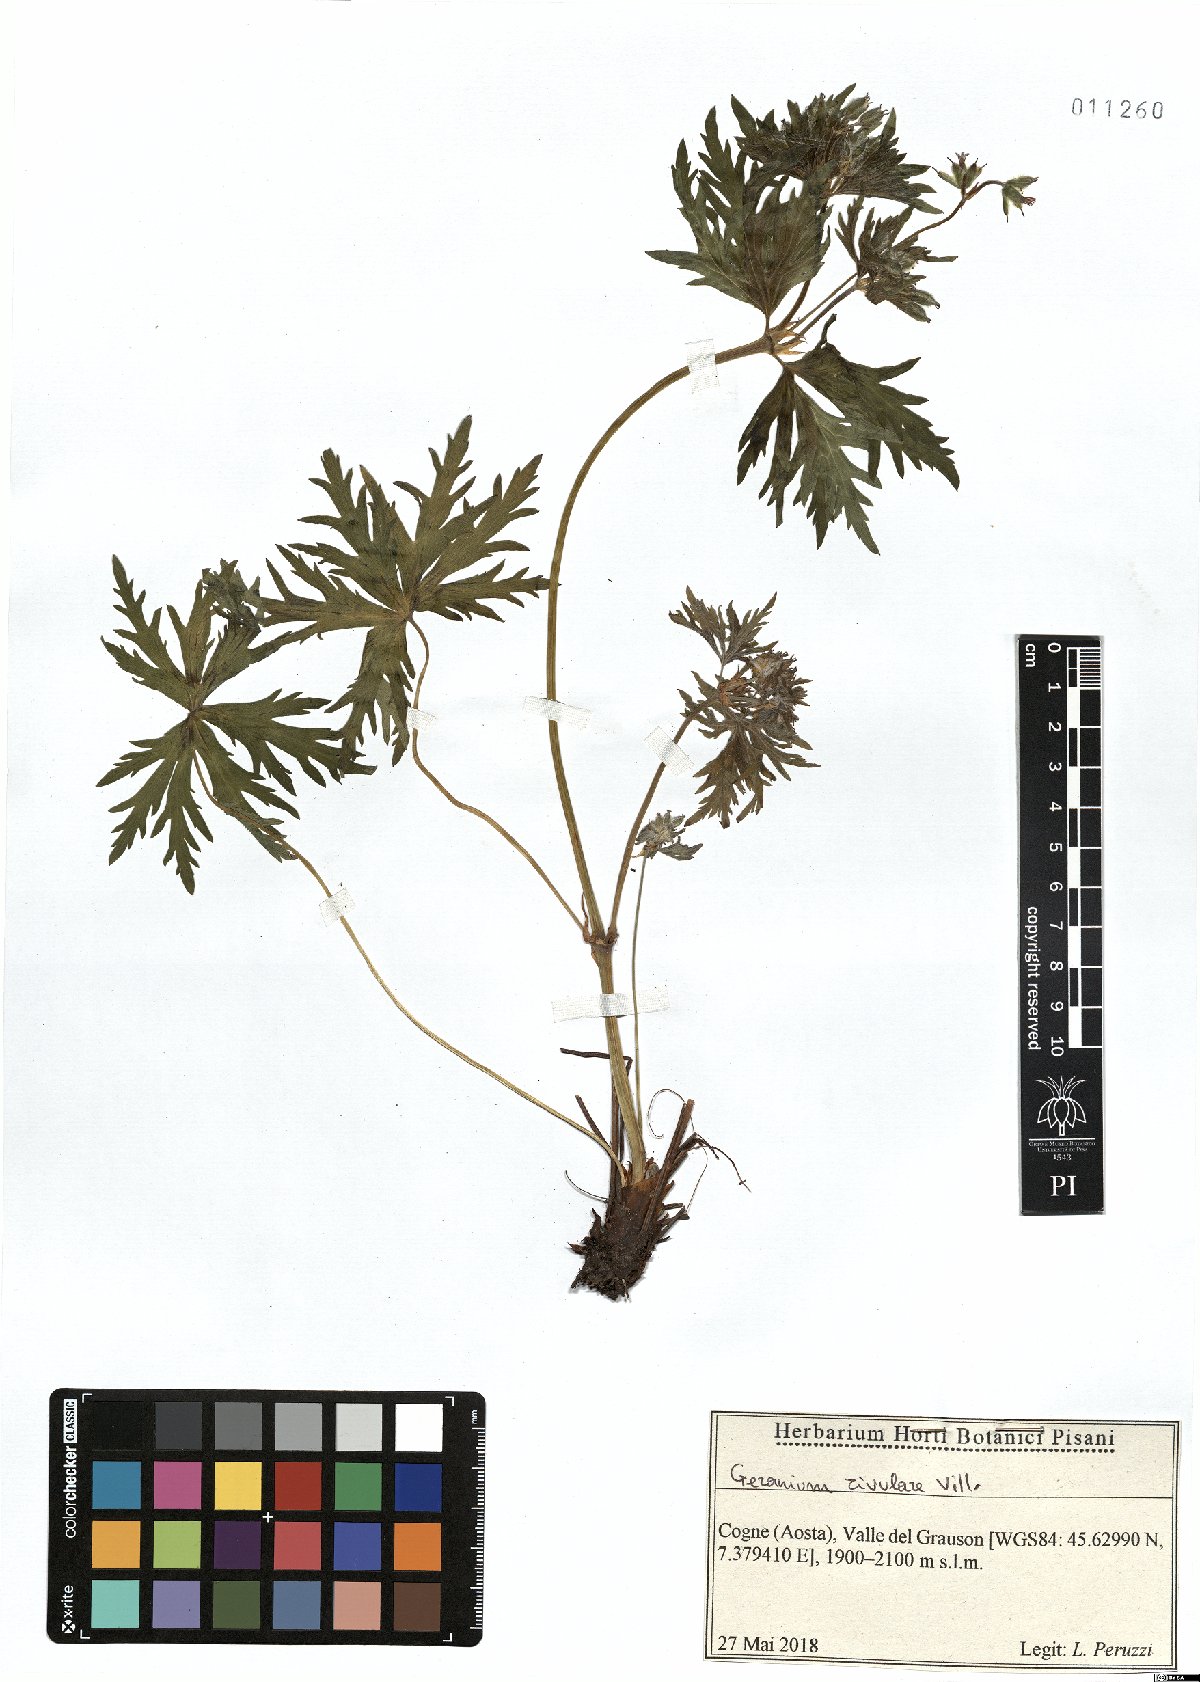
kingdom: Plantae
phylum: Tracheophyta
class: Magnoliopsida
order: Geraniales
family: Geraniaceae
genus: Geranium
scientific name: Geranium rivulare
